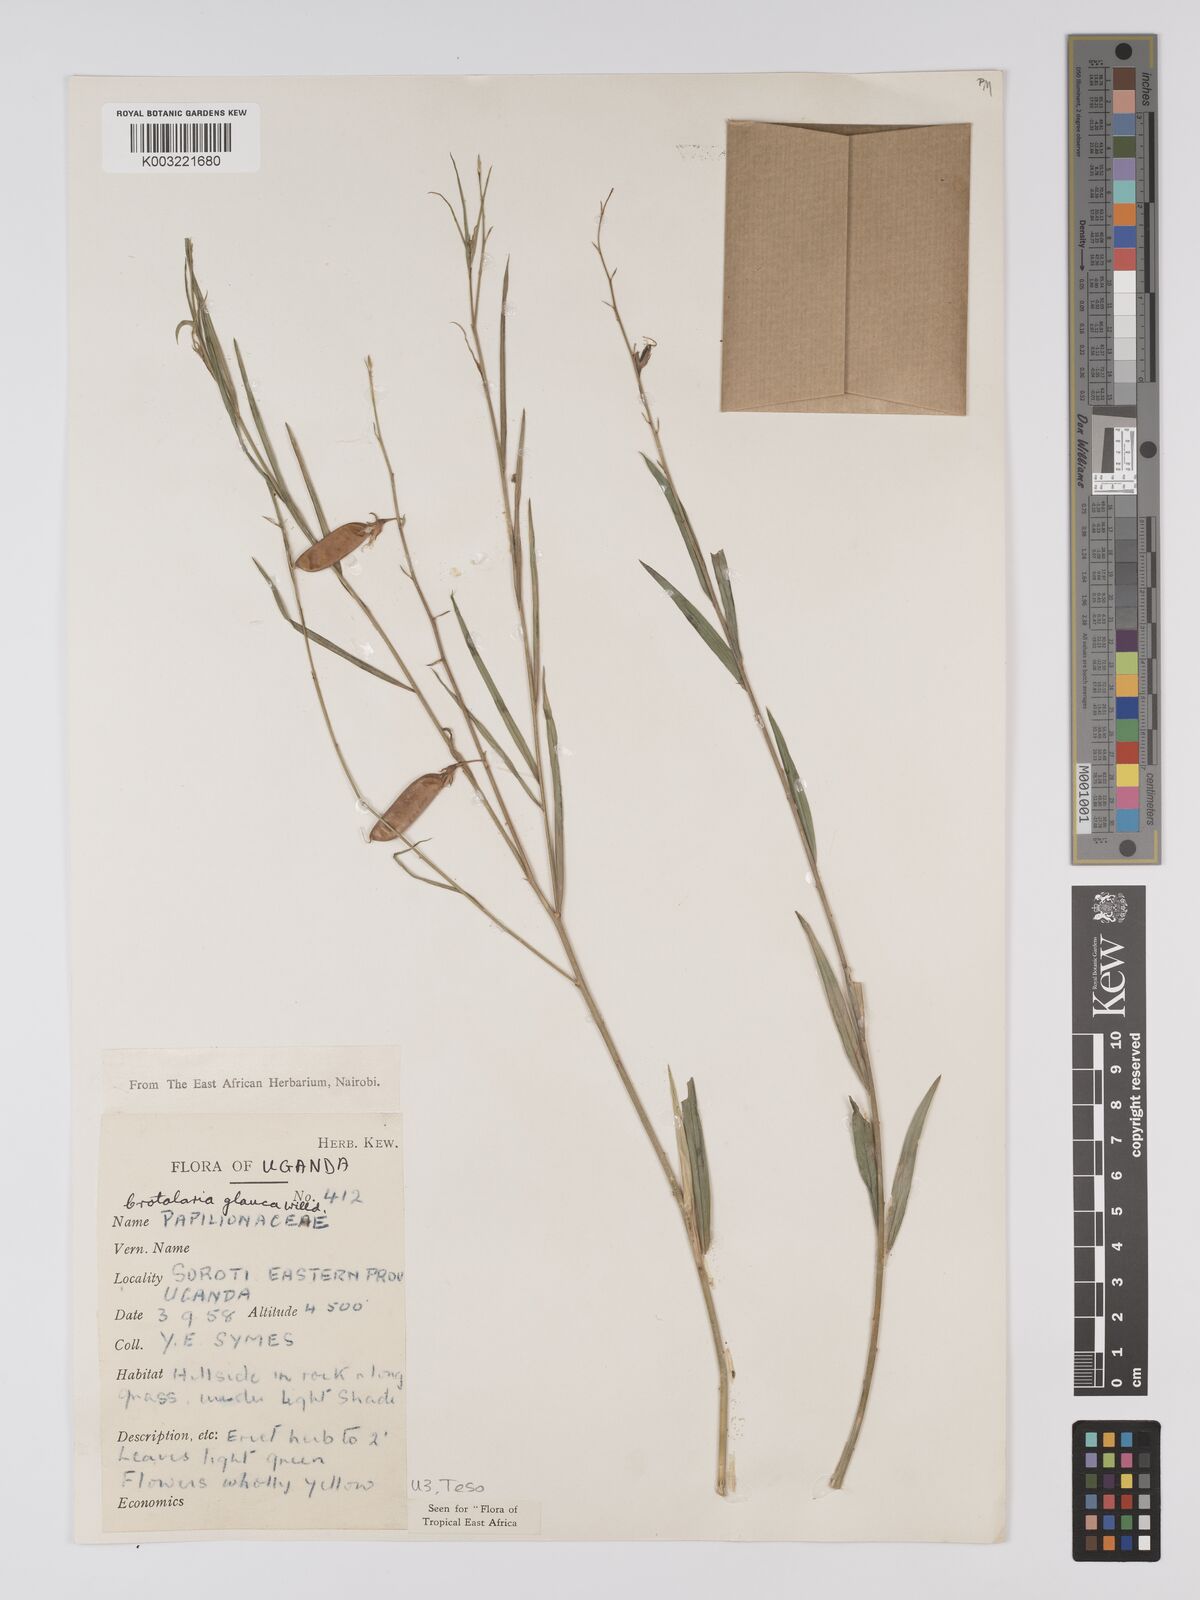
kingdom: Plantae
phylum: Tracheophyta
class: Magnoliopsida
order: Fabales
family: Fabaceae
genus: Crotalaria
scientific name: Crotalaria glauca
